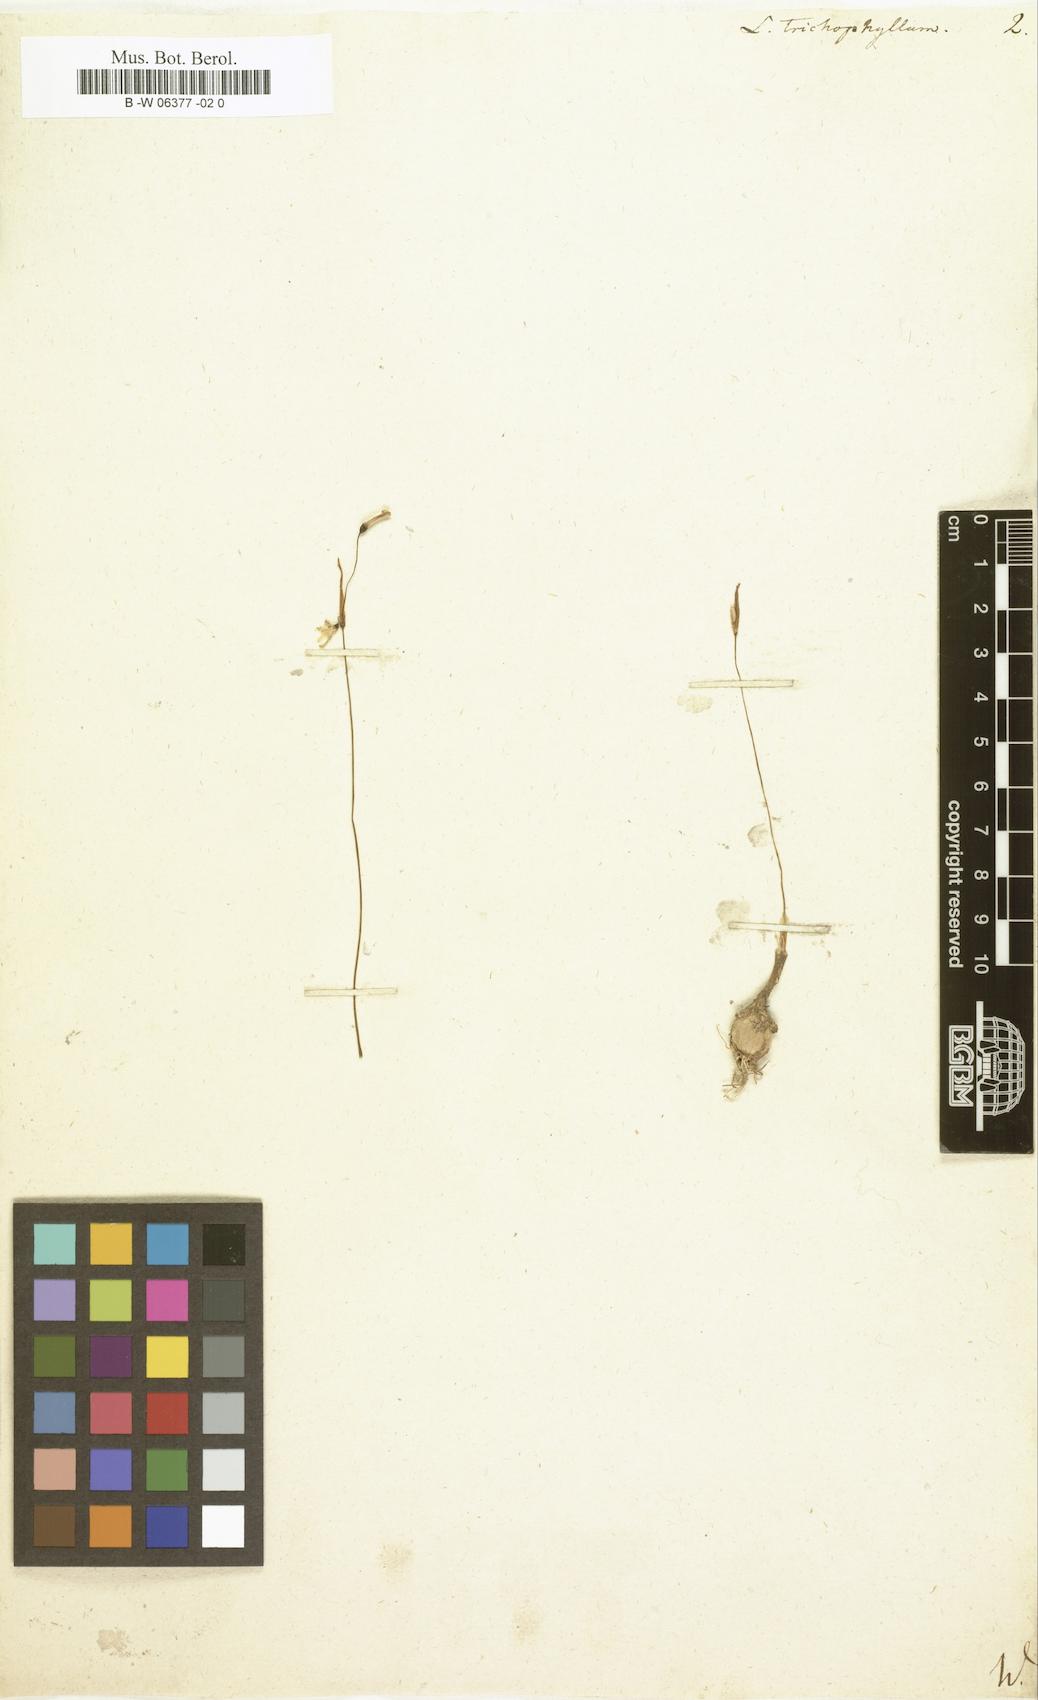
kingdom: Plantae
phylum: Tracheophyta
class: Liliopsida
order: Asparagales
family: Amaryllidaceae
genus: Acis
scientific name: Acis
